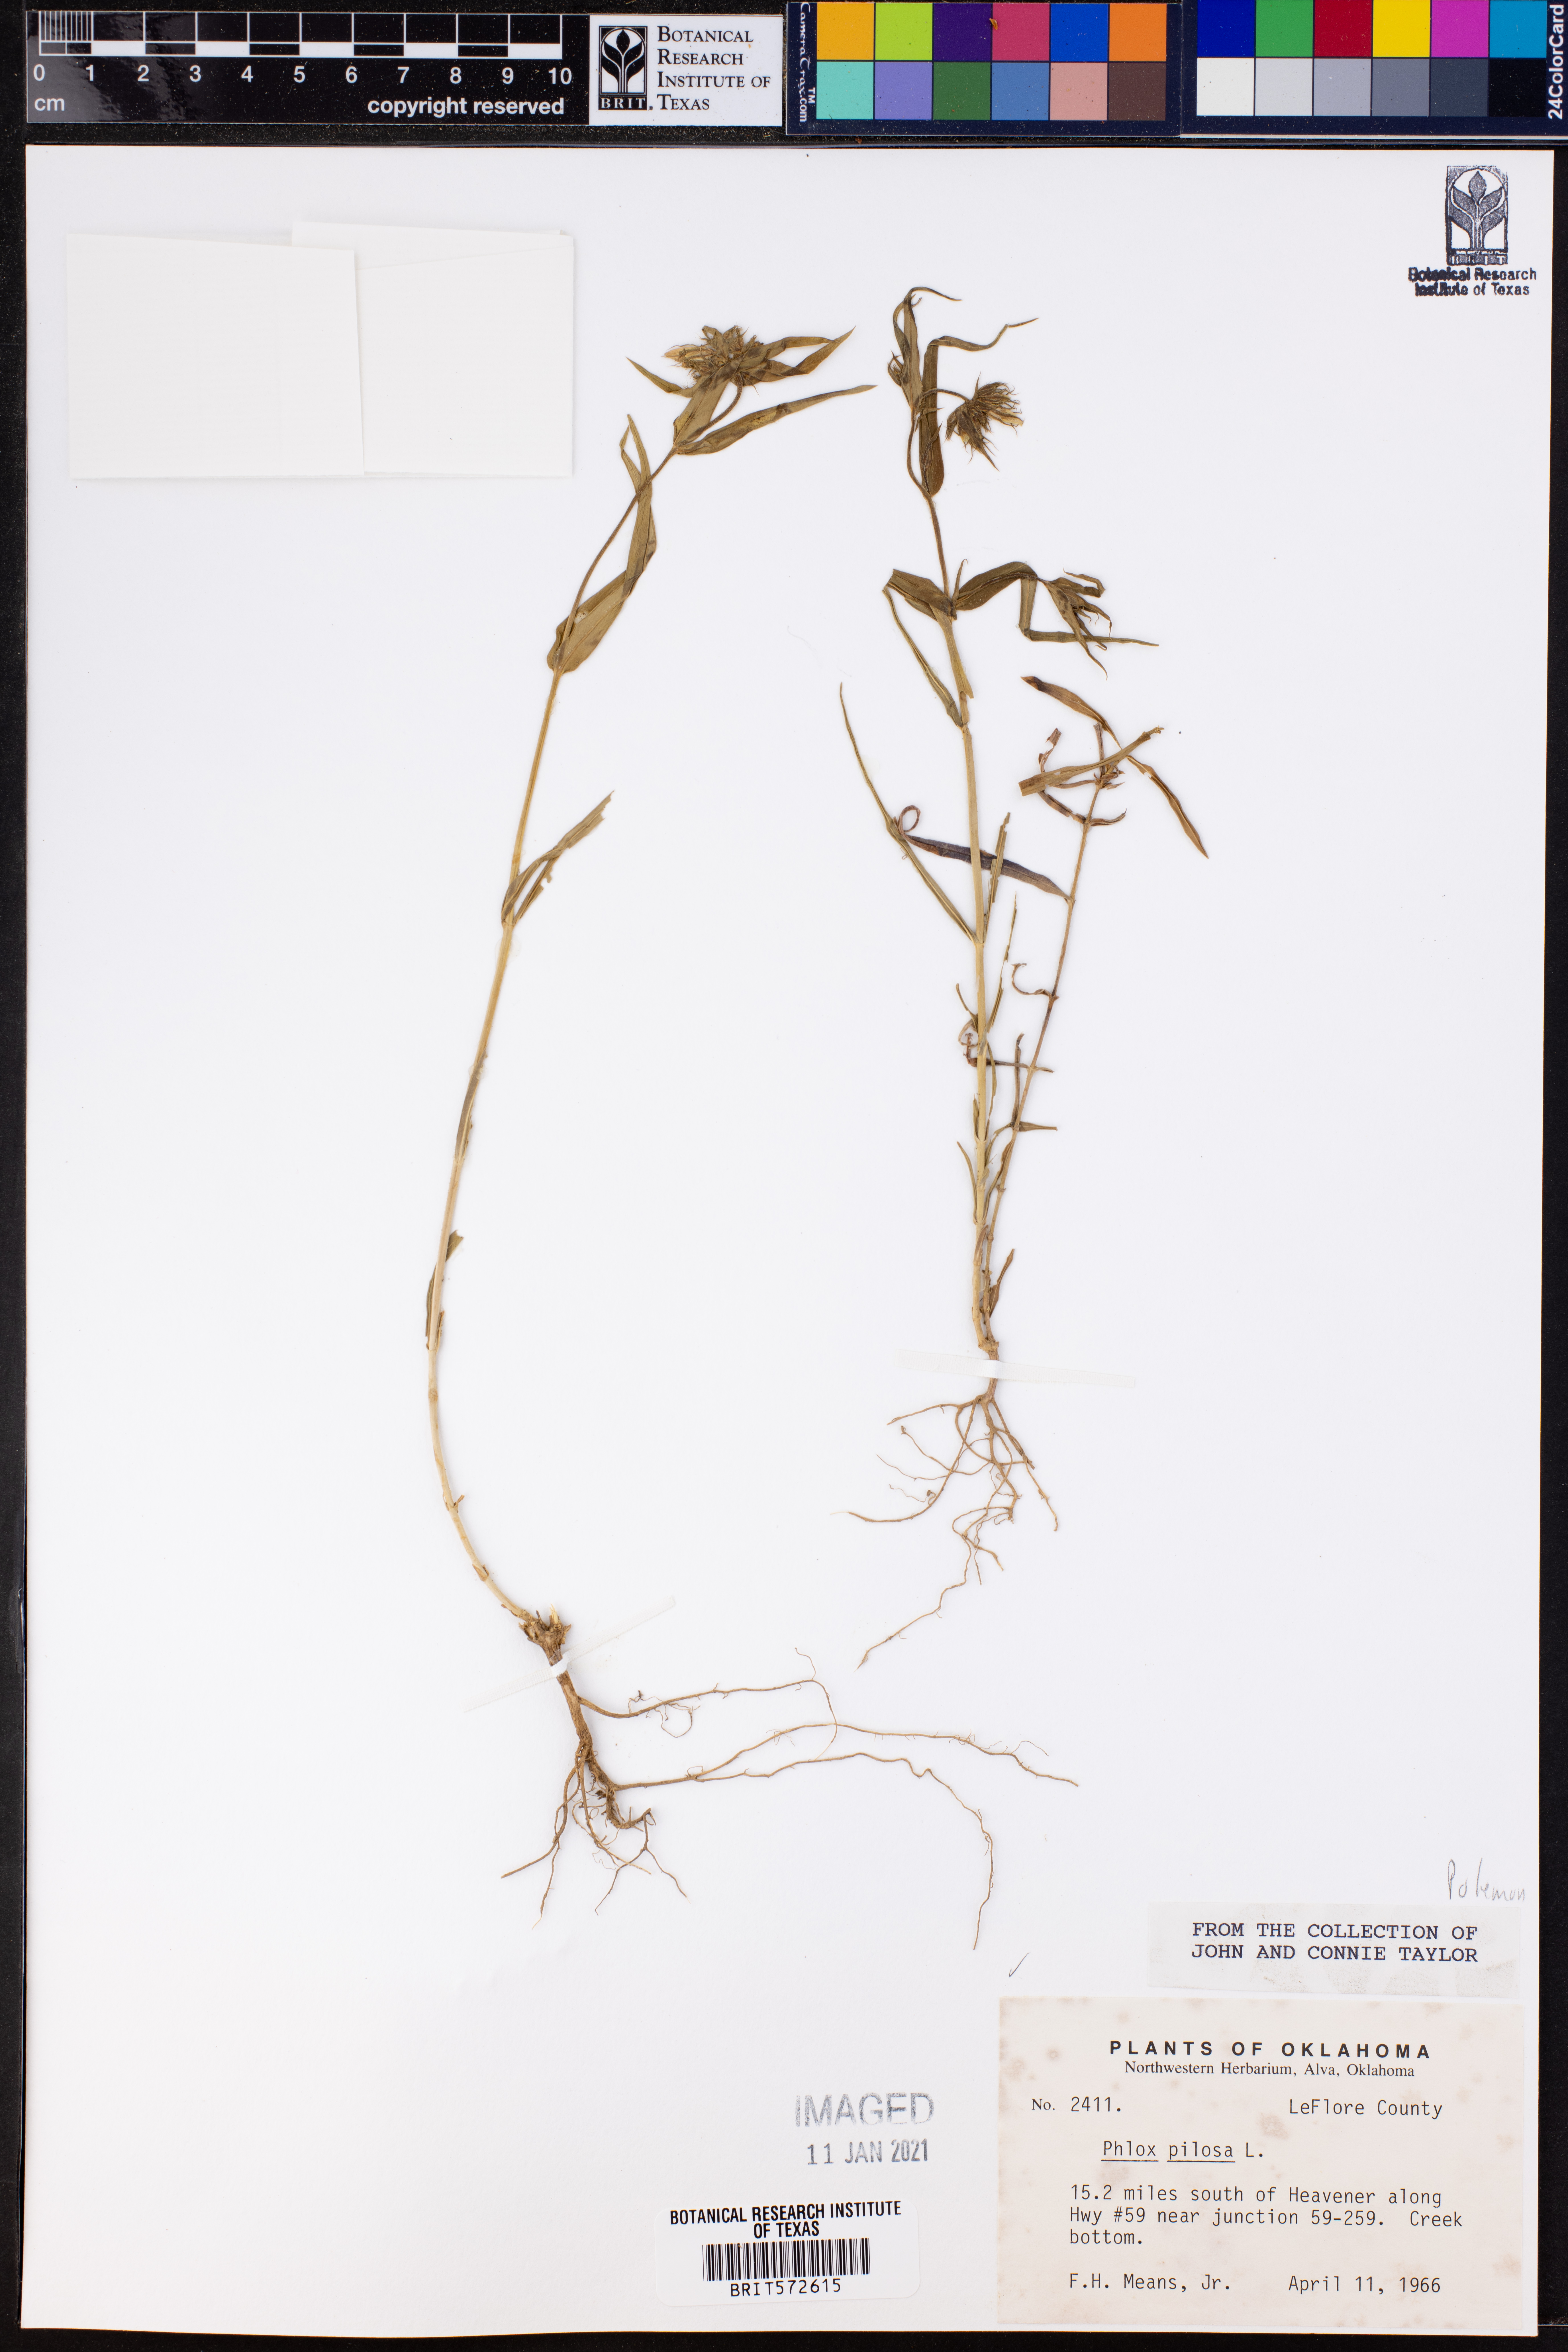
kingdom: Plantae
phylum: Tracheophyta
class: Magnoliopsida
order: Ericales
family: Polemoniaceae
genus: Phlox
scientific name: Phlox pilosa
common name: Prairie phlox
